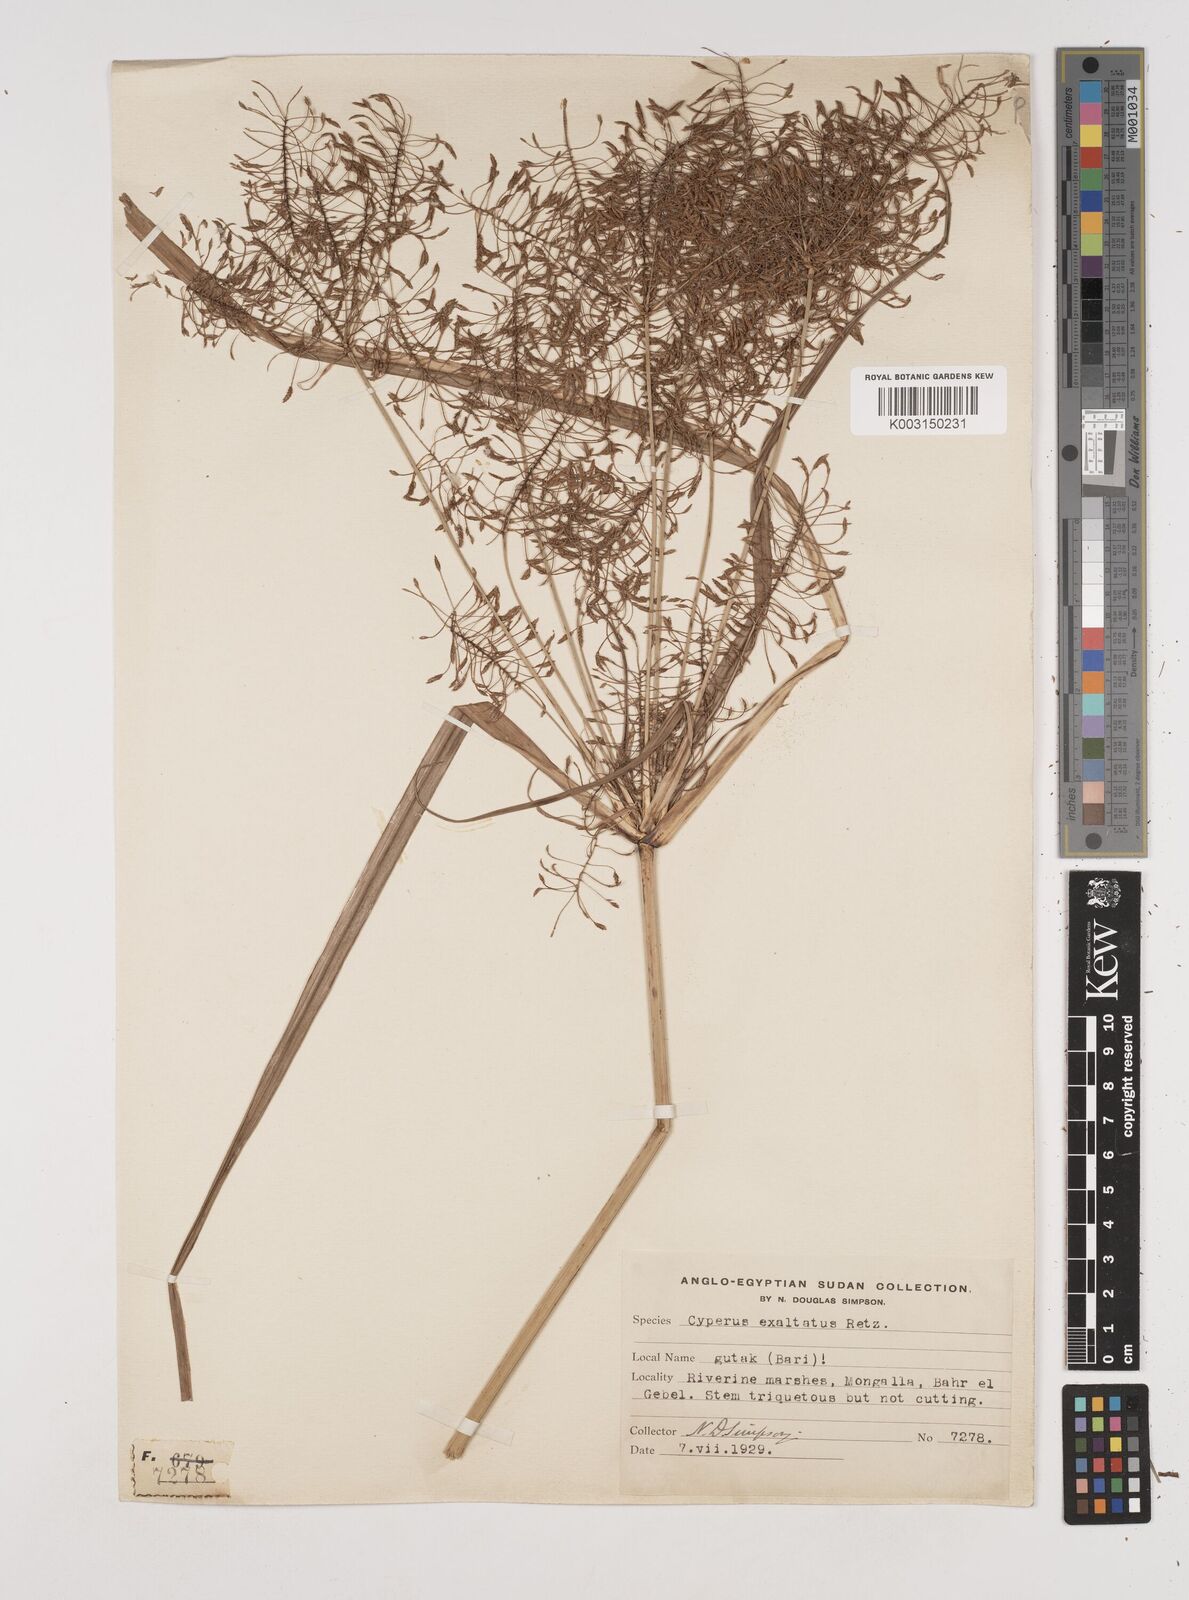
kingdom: Plantae
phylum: Tracheophyta
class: Liliopsida
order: Poales
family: Cyperaceae
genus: Cyperus
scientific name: Cyperus exaltatus
